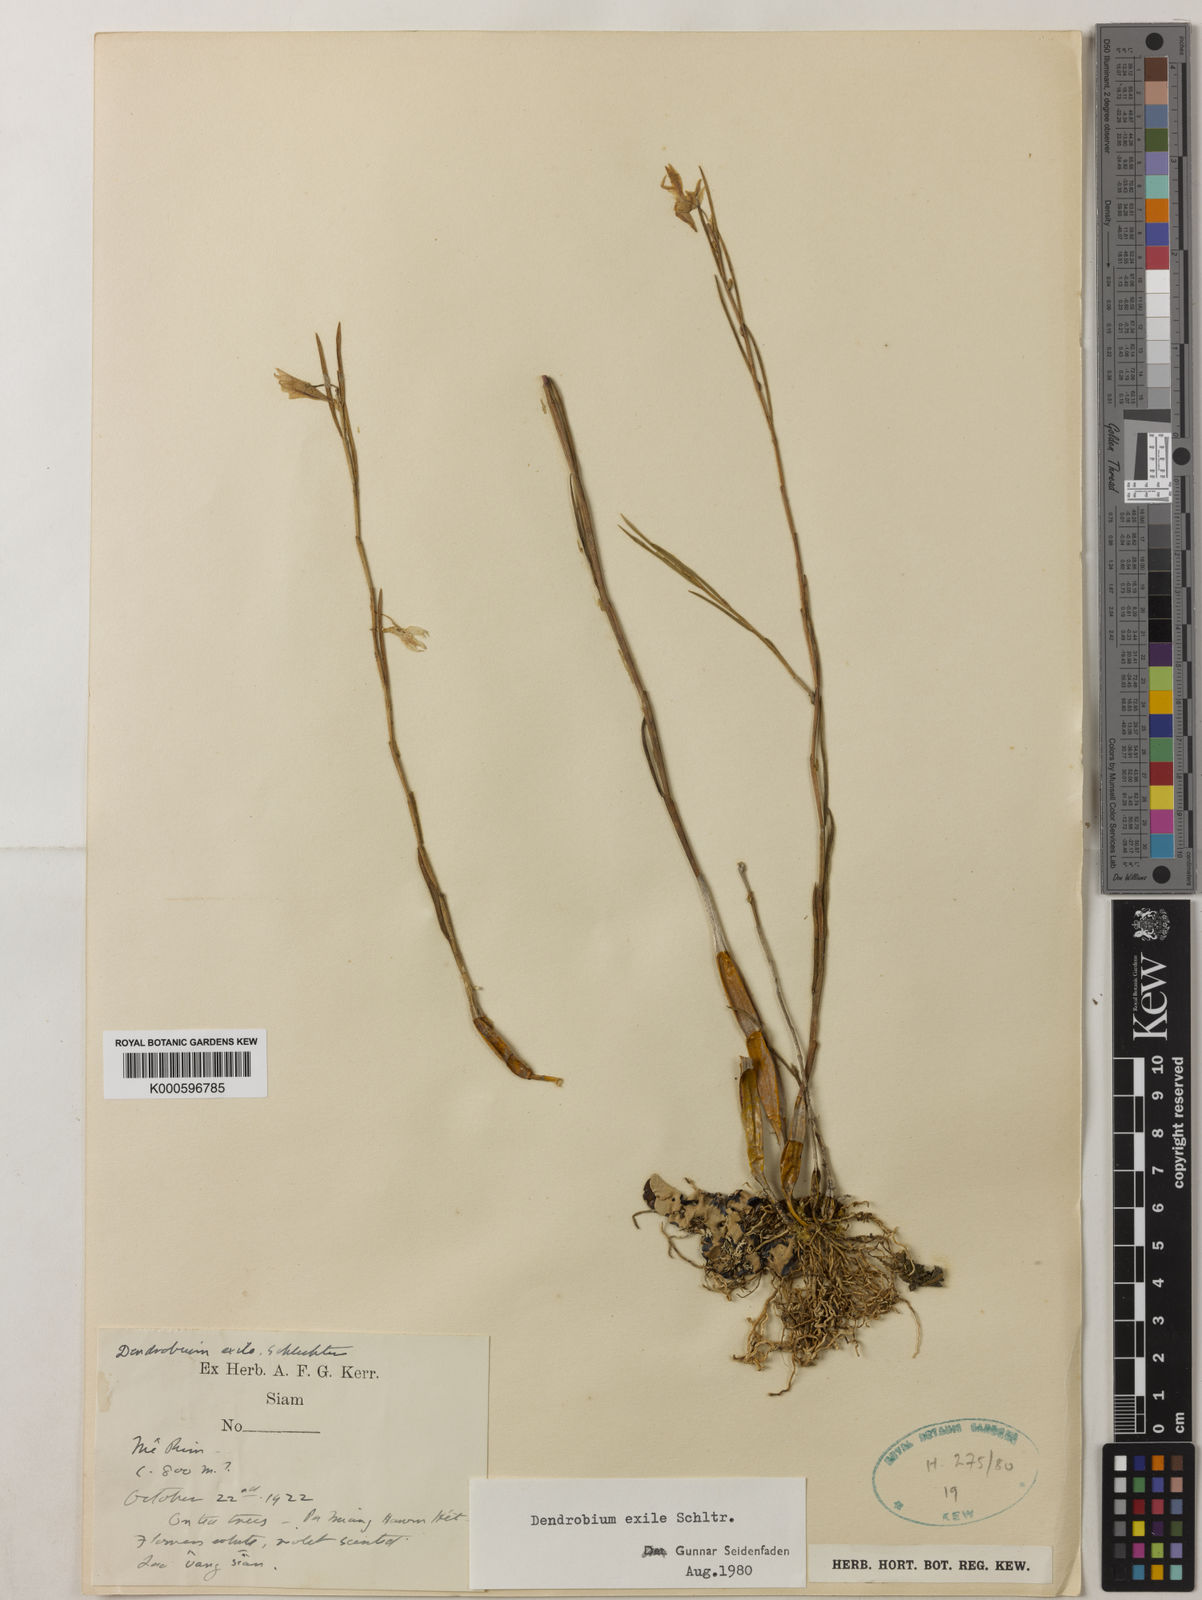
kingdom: Plantae
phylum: Tracheophyta
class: Liliopsida
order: Asparagales
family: Orchidaceae
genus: Dendrobium
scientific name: Dendrobium exile
